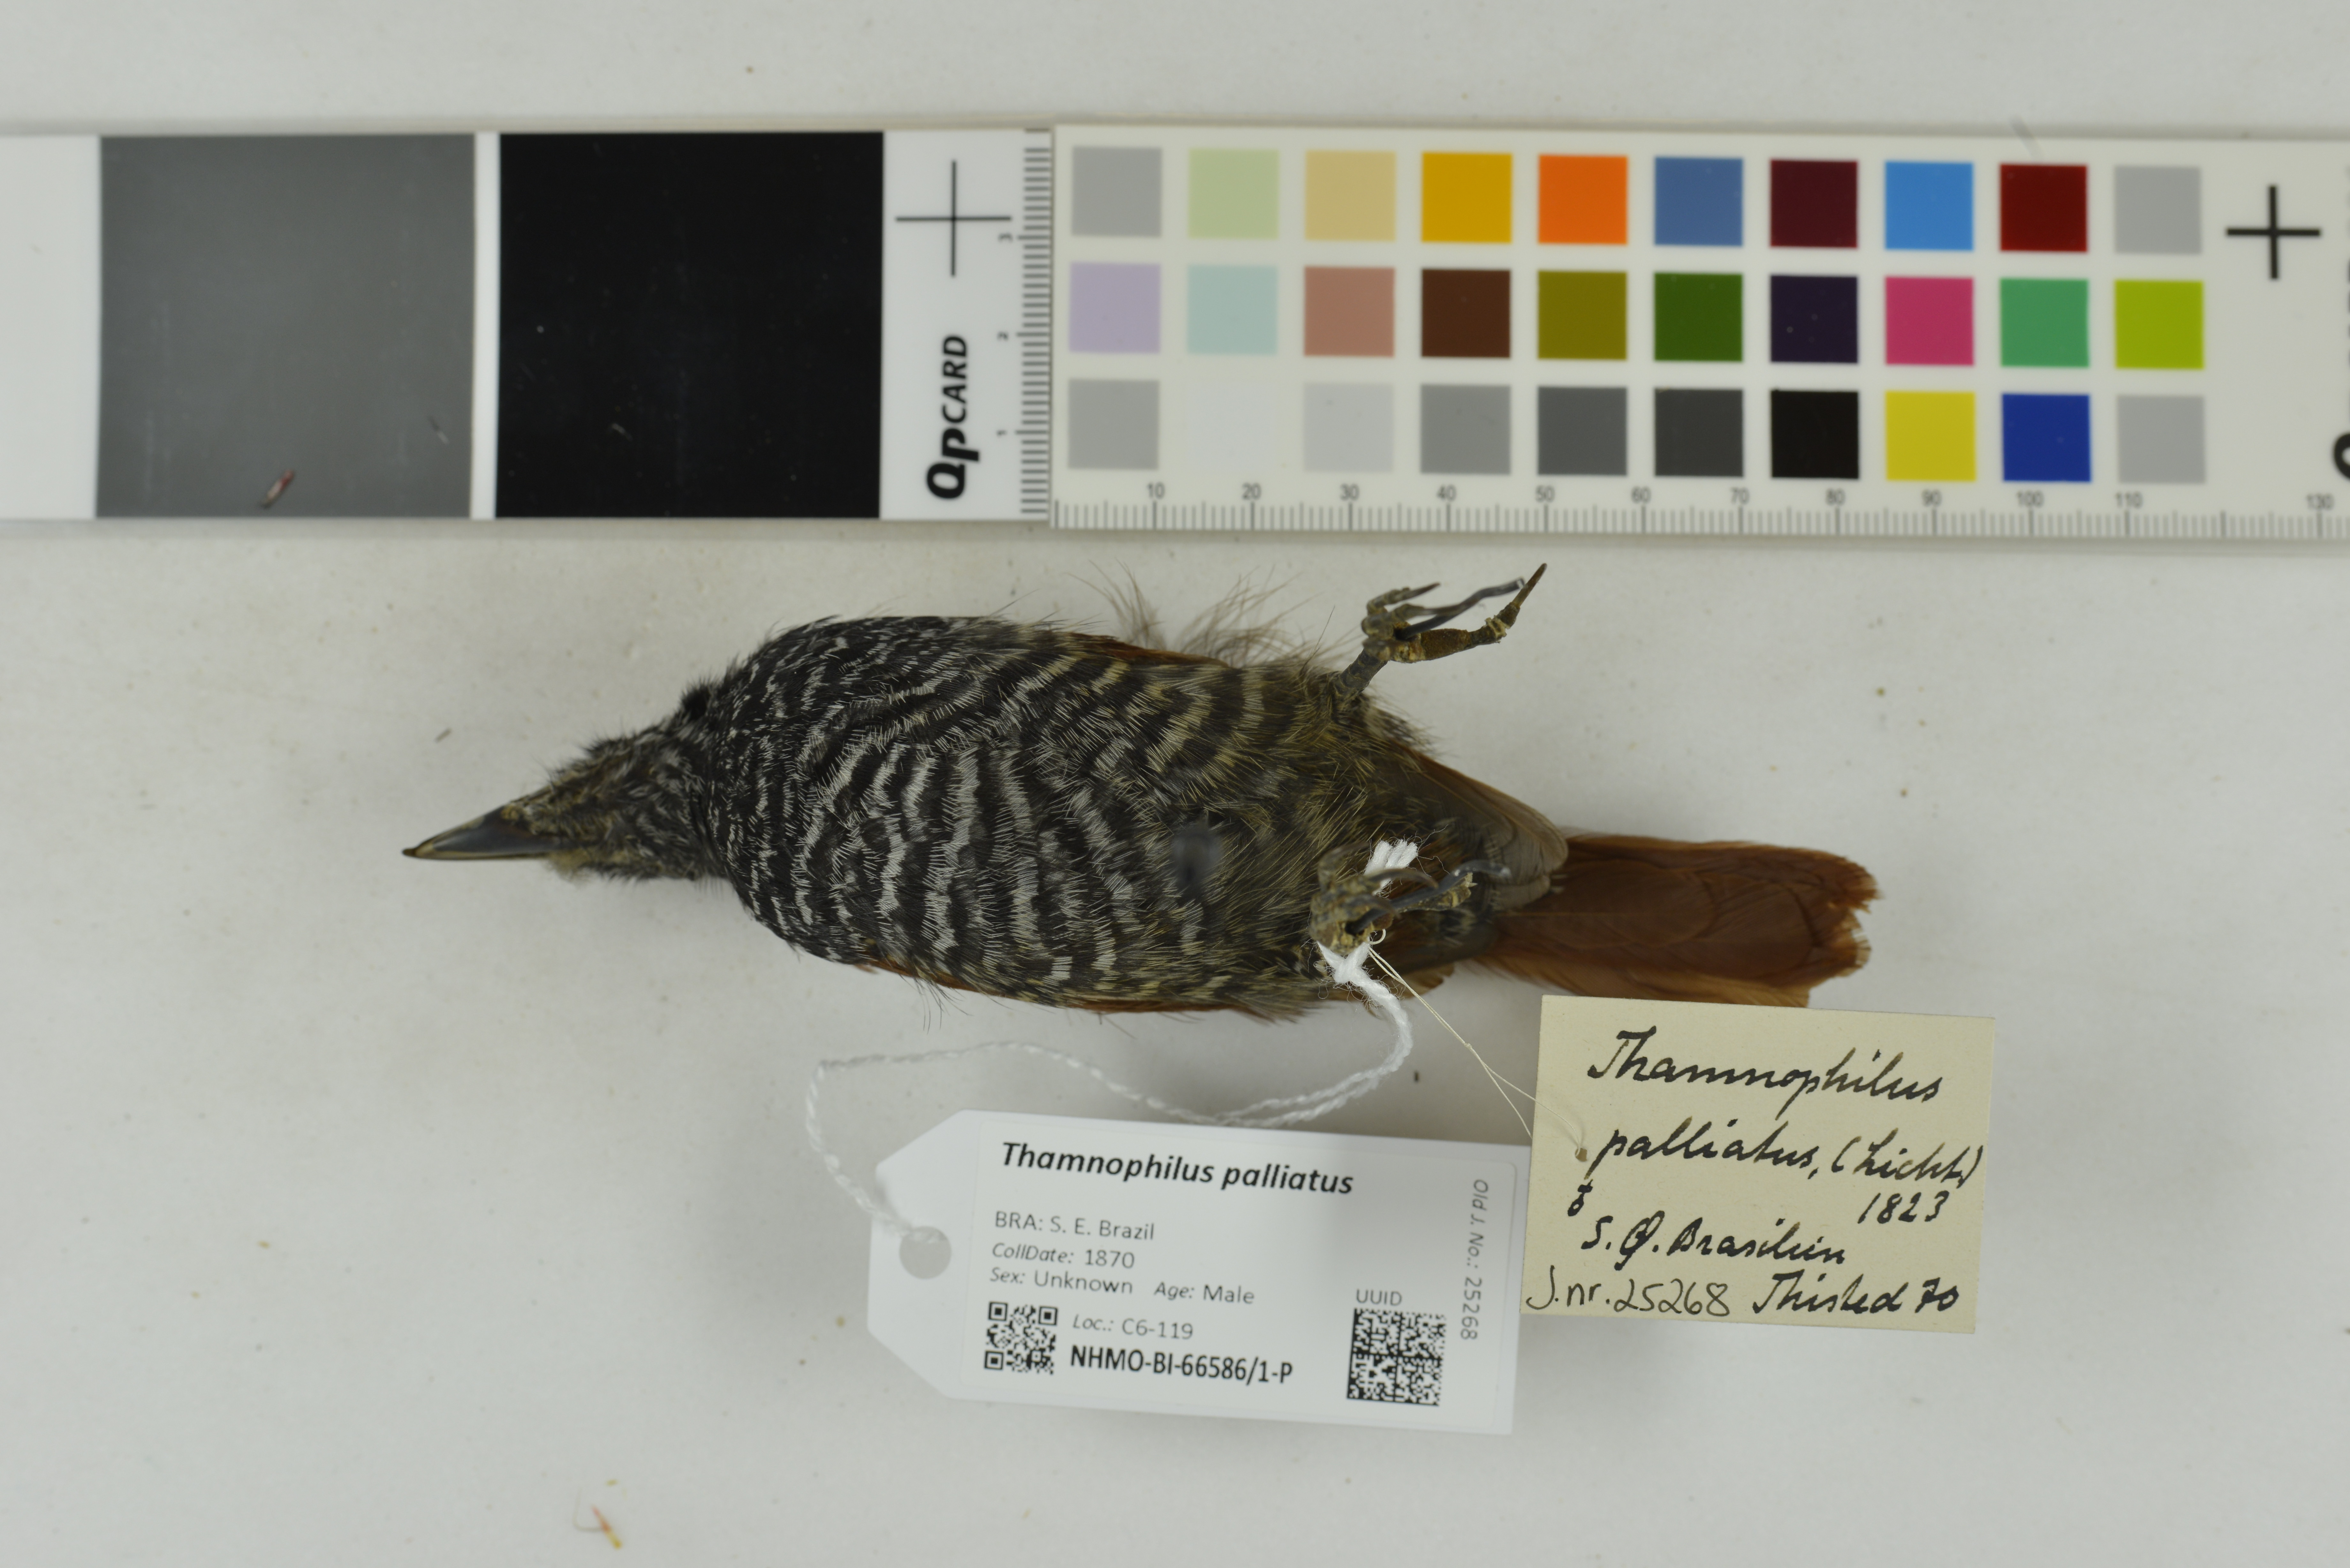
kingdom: Animalia
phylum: Chordata
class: Aves
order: Passeriformes
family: Thamnophilidae
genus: Thamnophilus
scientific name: Thamnophilus palliatus
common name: Chestnut-backed antshrike
